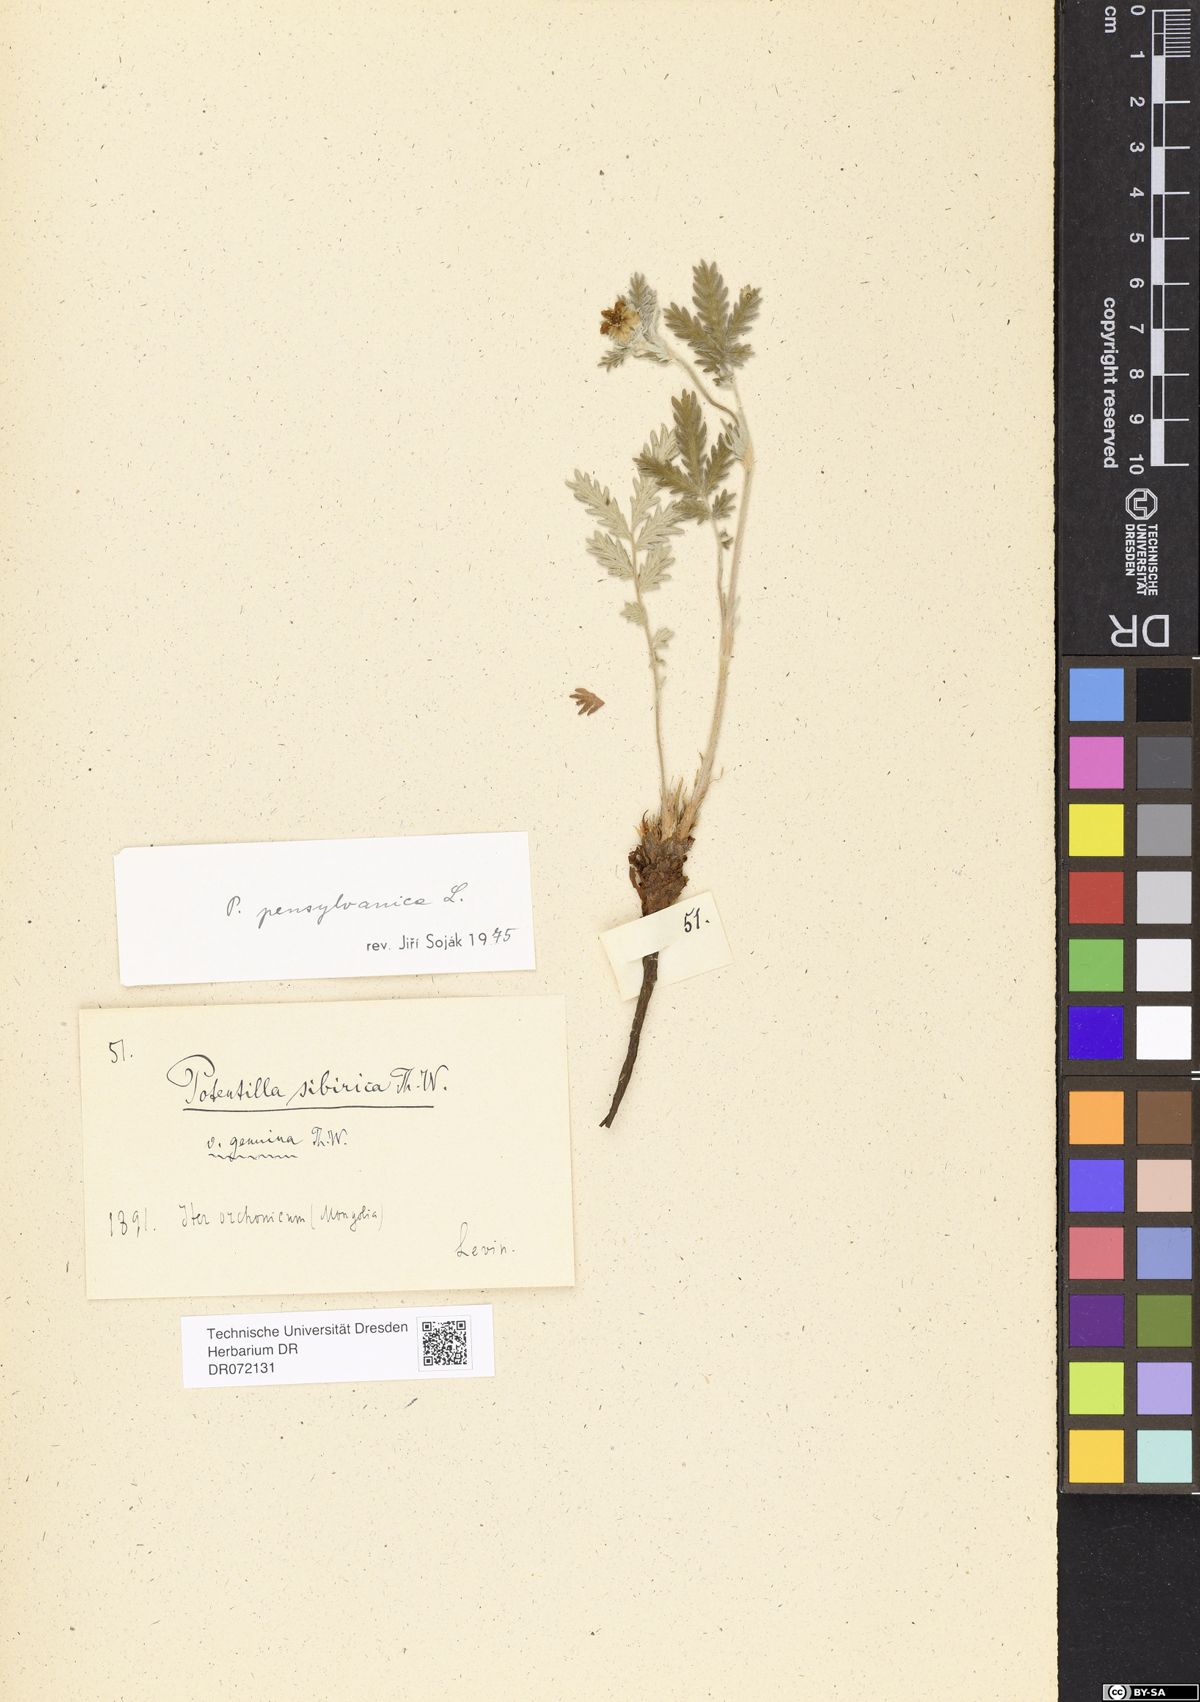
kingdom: Plantae
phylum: Tracheophyta
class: Magnoliopsida
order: Rosales
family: Rosaceae
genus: Potentilla
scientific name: Potentilla pensylvanica
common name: Pennsylvania cinquefoil
